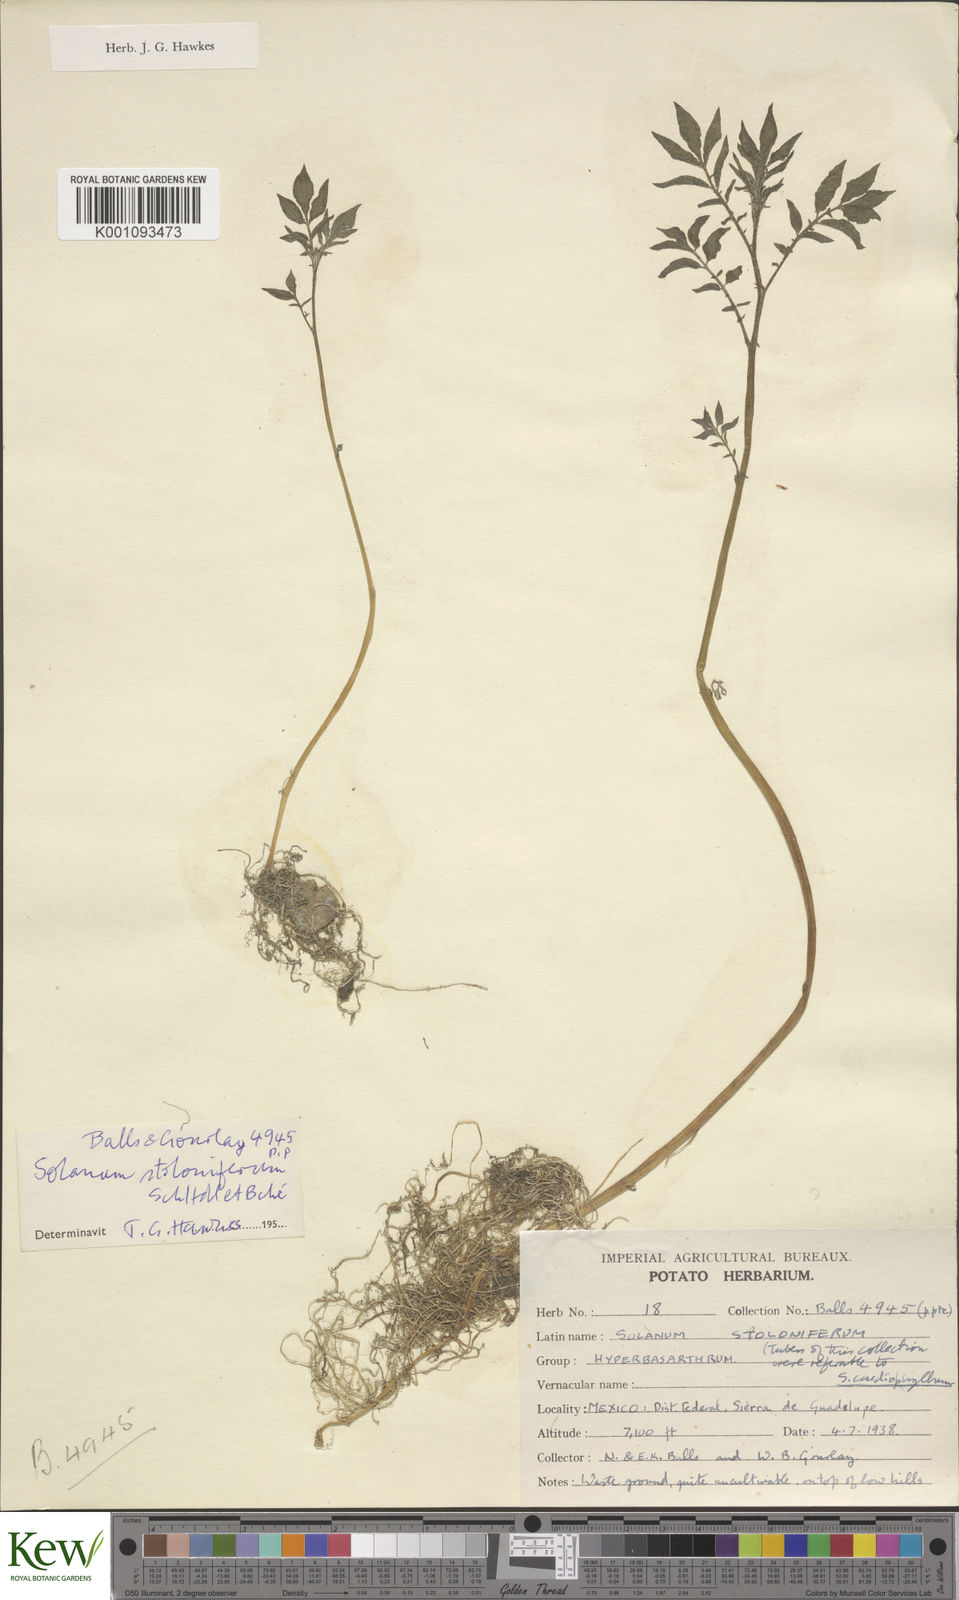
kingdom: Plantae
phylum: Tracheophyta
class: Magnoliopsida
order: Solanales
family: Solanaceae
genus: Solanum
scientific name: Solanum stoloniferum
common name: Fendler's nighshade
